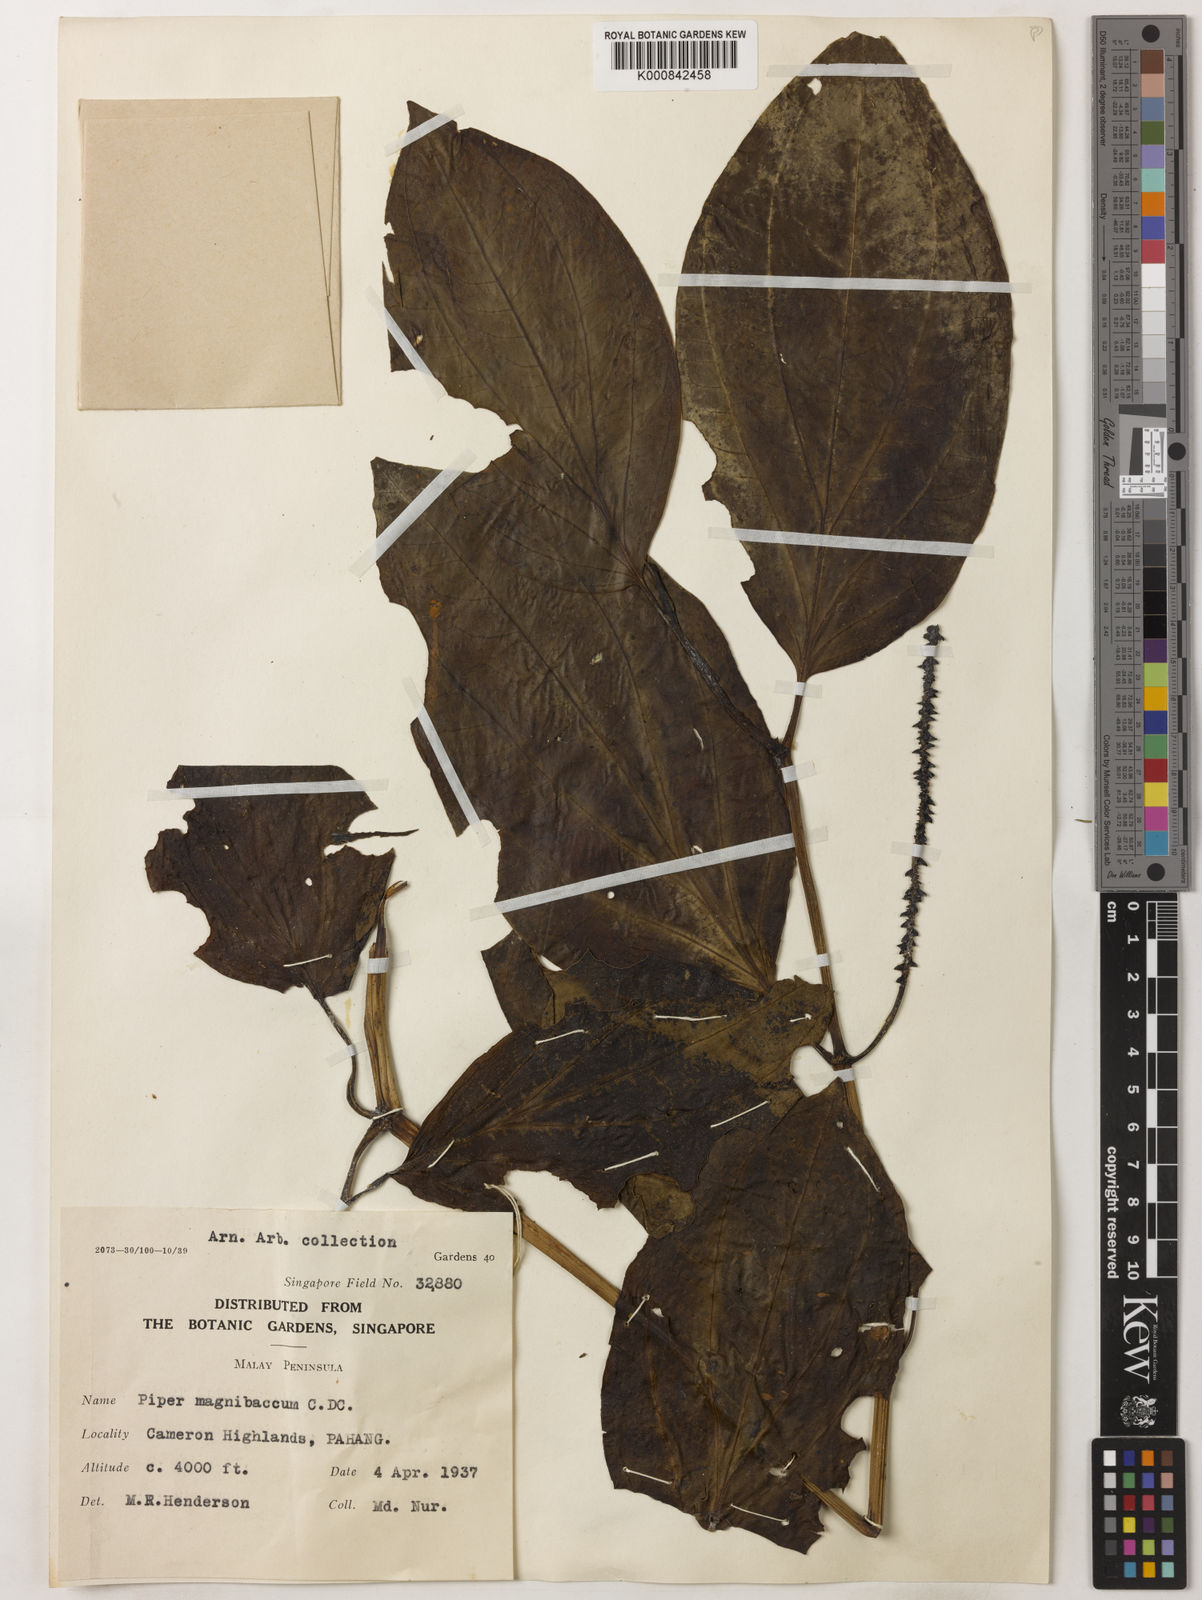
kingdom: Plantae
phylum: Tracheophyta
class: Magnoliopsida
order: Piperales
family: Piperaceae
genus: Piper
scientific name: Piper quinqueangulatum
